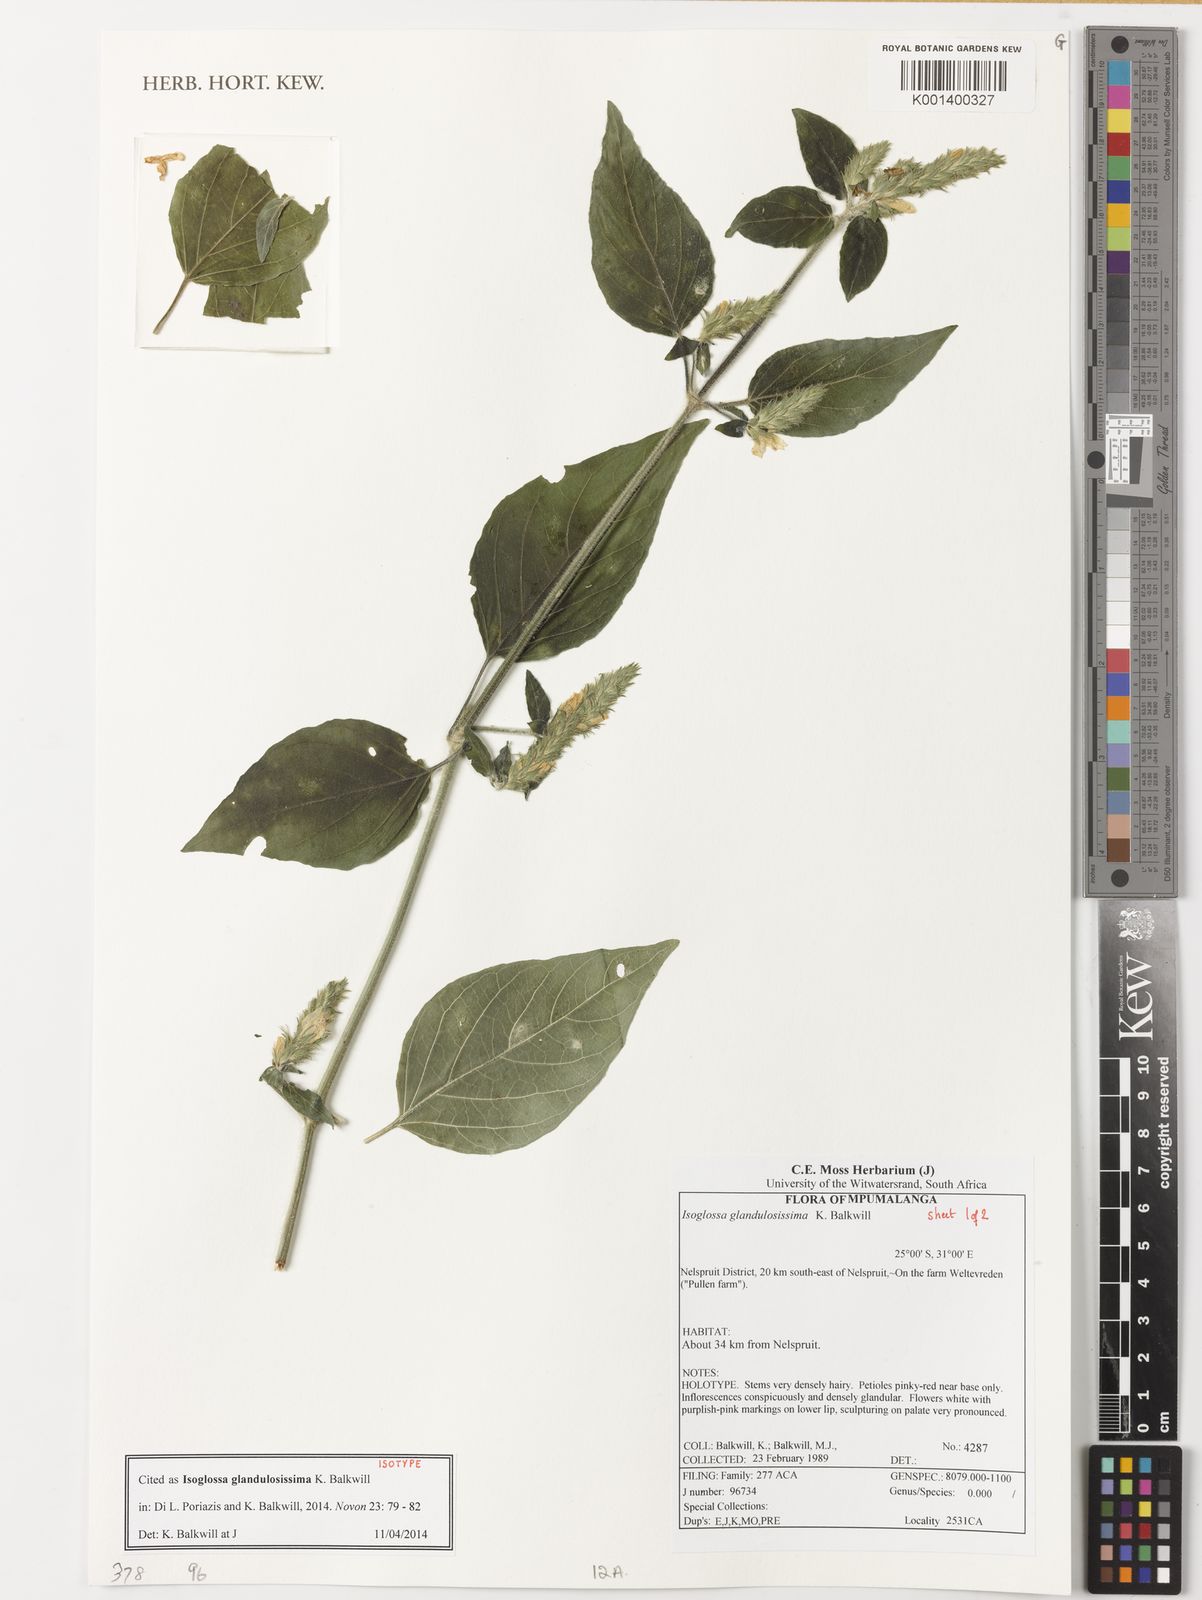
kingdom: Plantae
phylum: Tracheophyta
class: Magnoliopsida
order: Lamiales
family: Acanthaceae
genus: Isoglossa
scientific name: Isoglossa glandulosissima
